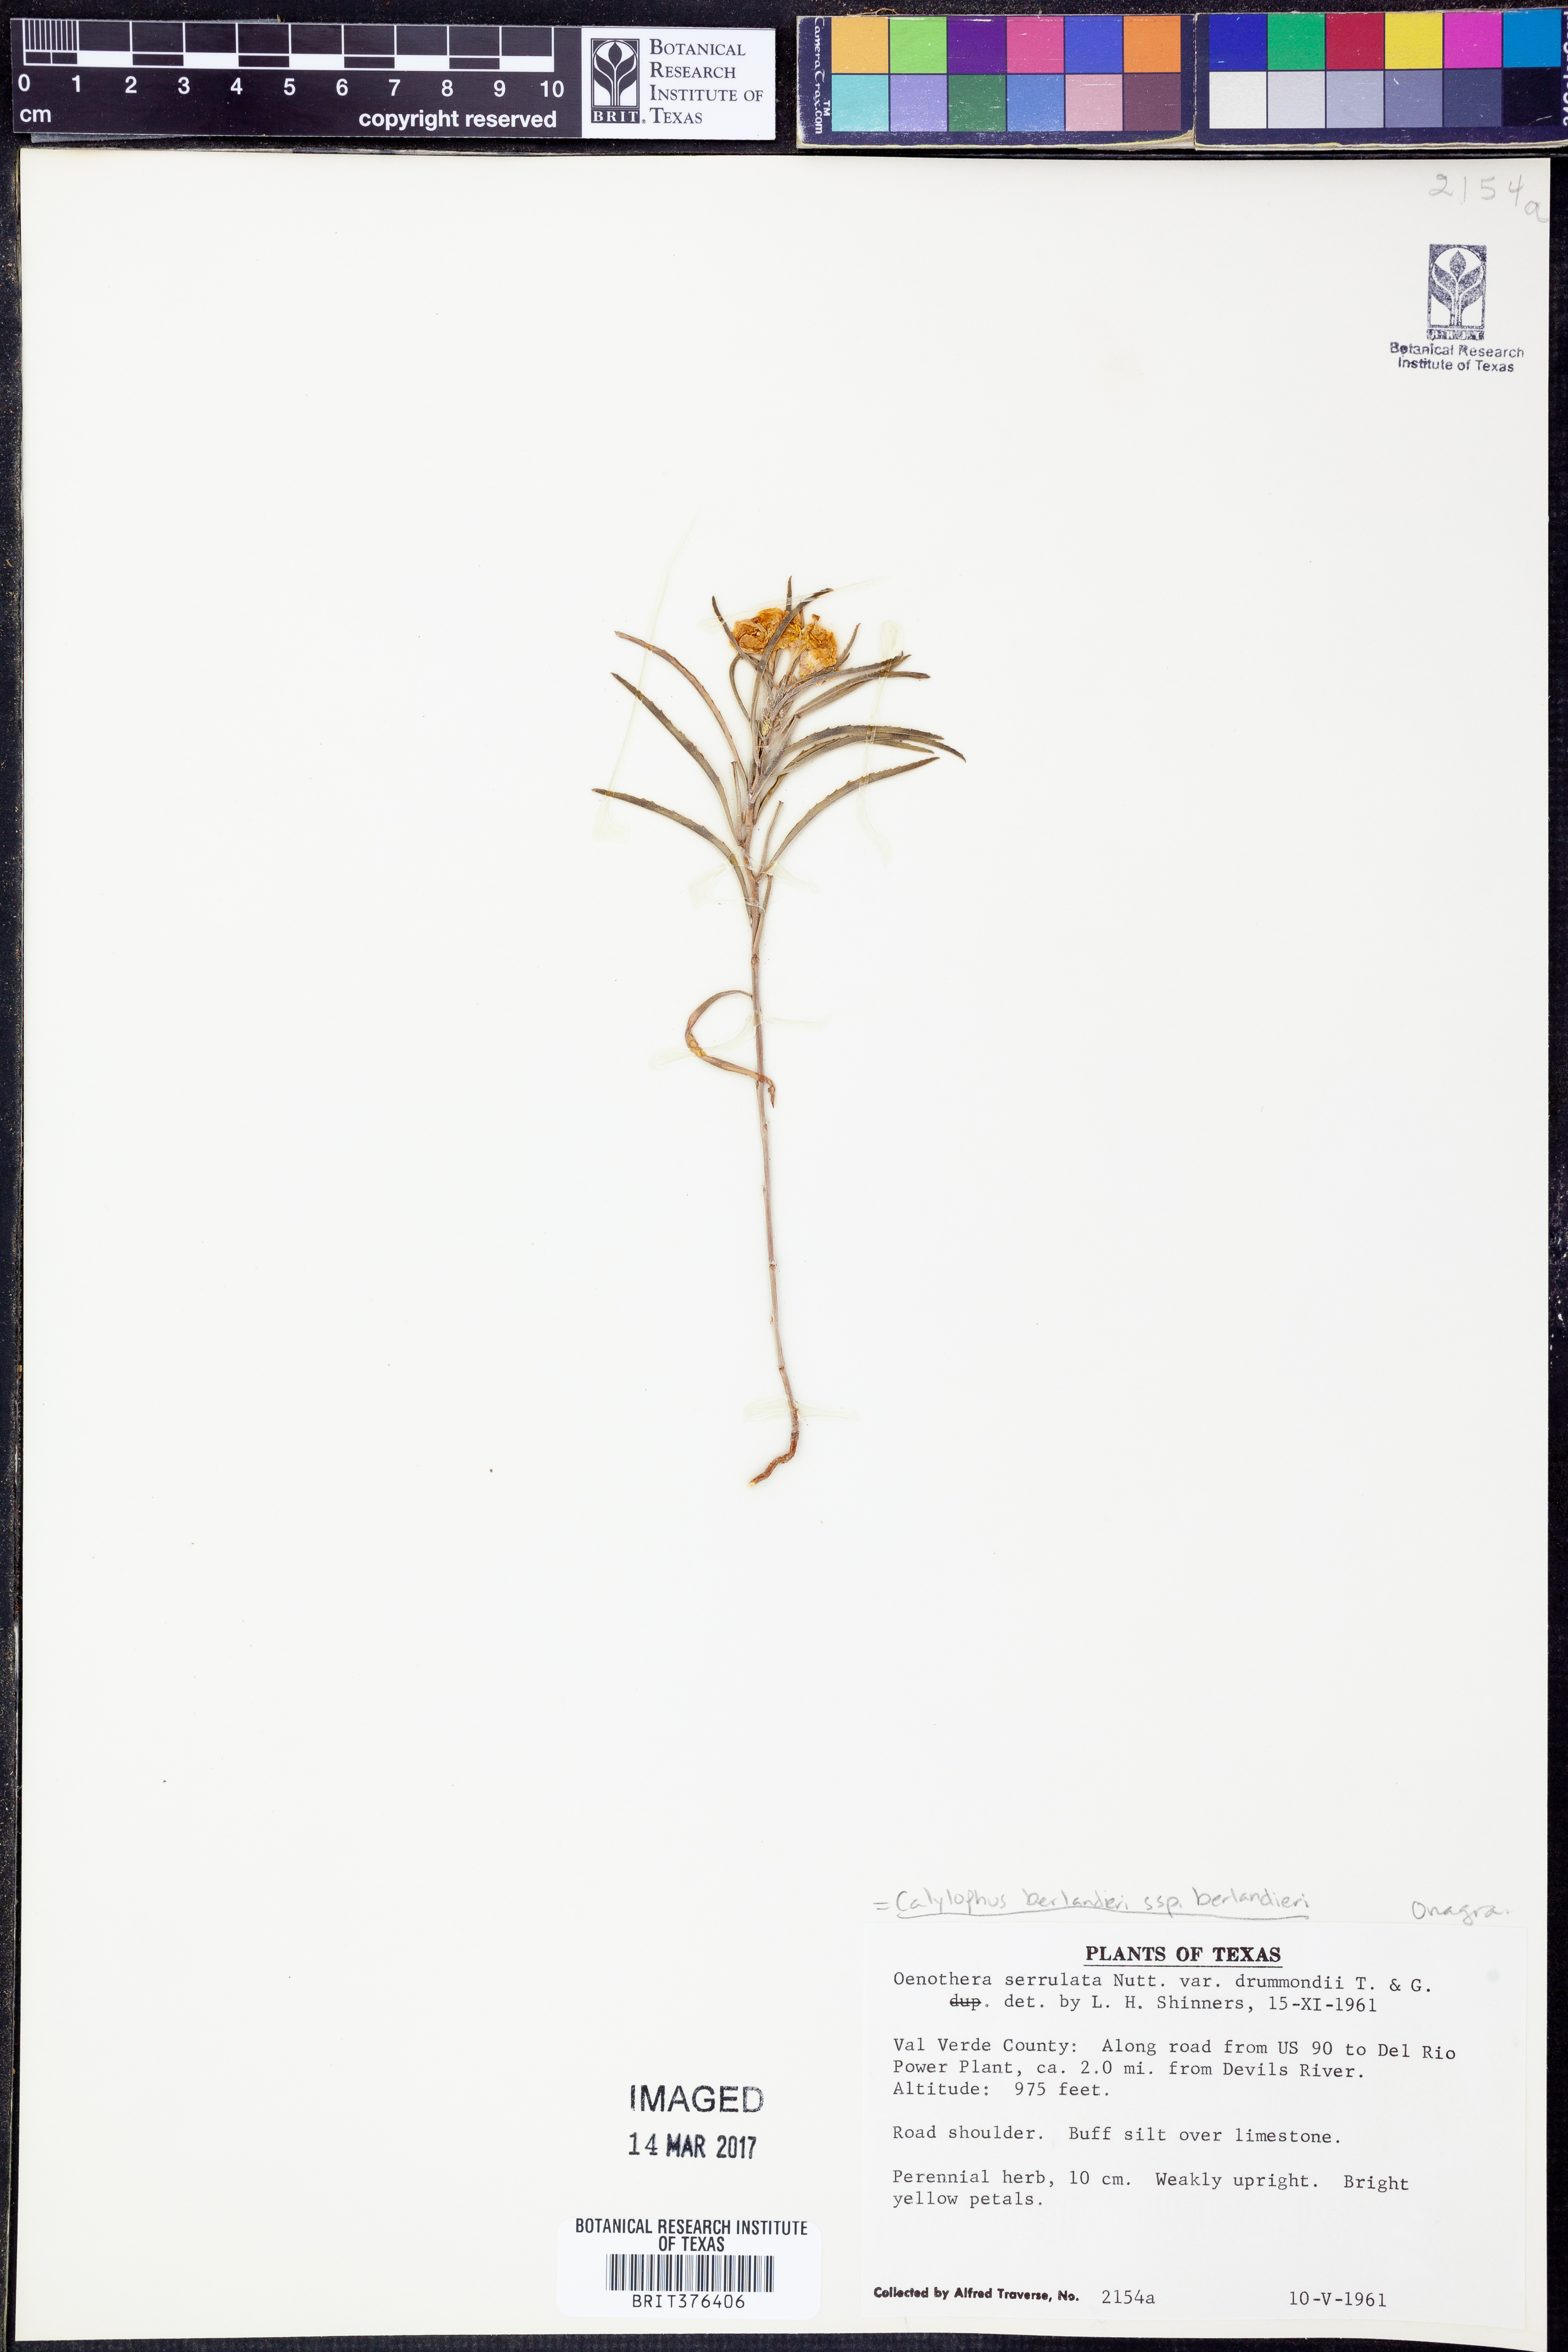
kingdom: Plantae
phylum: Tracheophyta
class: Magnoliopsida
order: Myrtales
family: Onagraceae
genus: Oenothera
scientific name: Oenothera capillifolia
